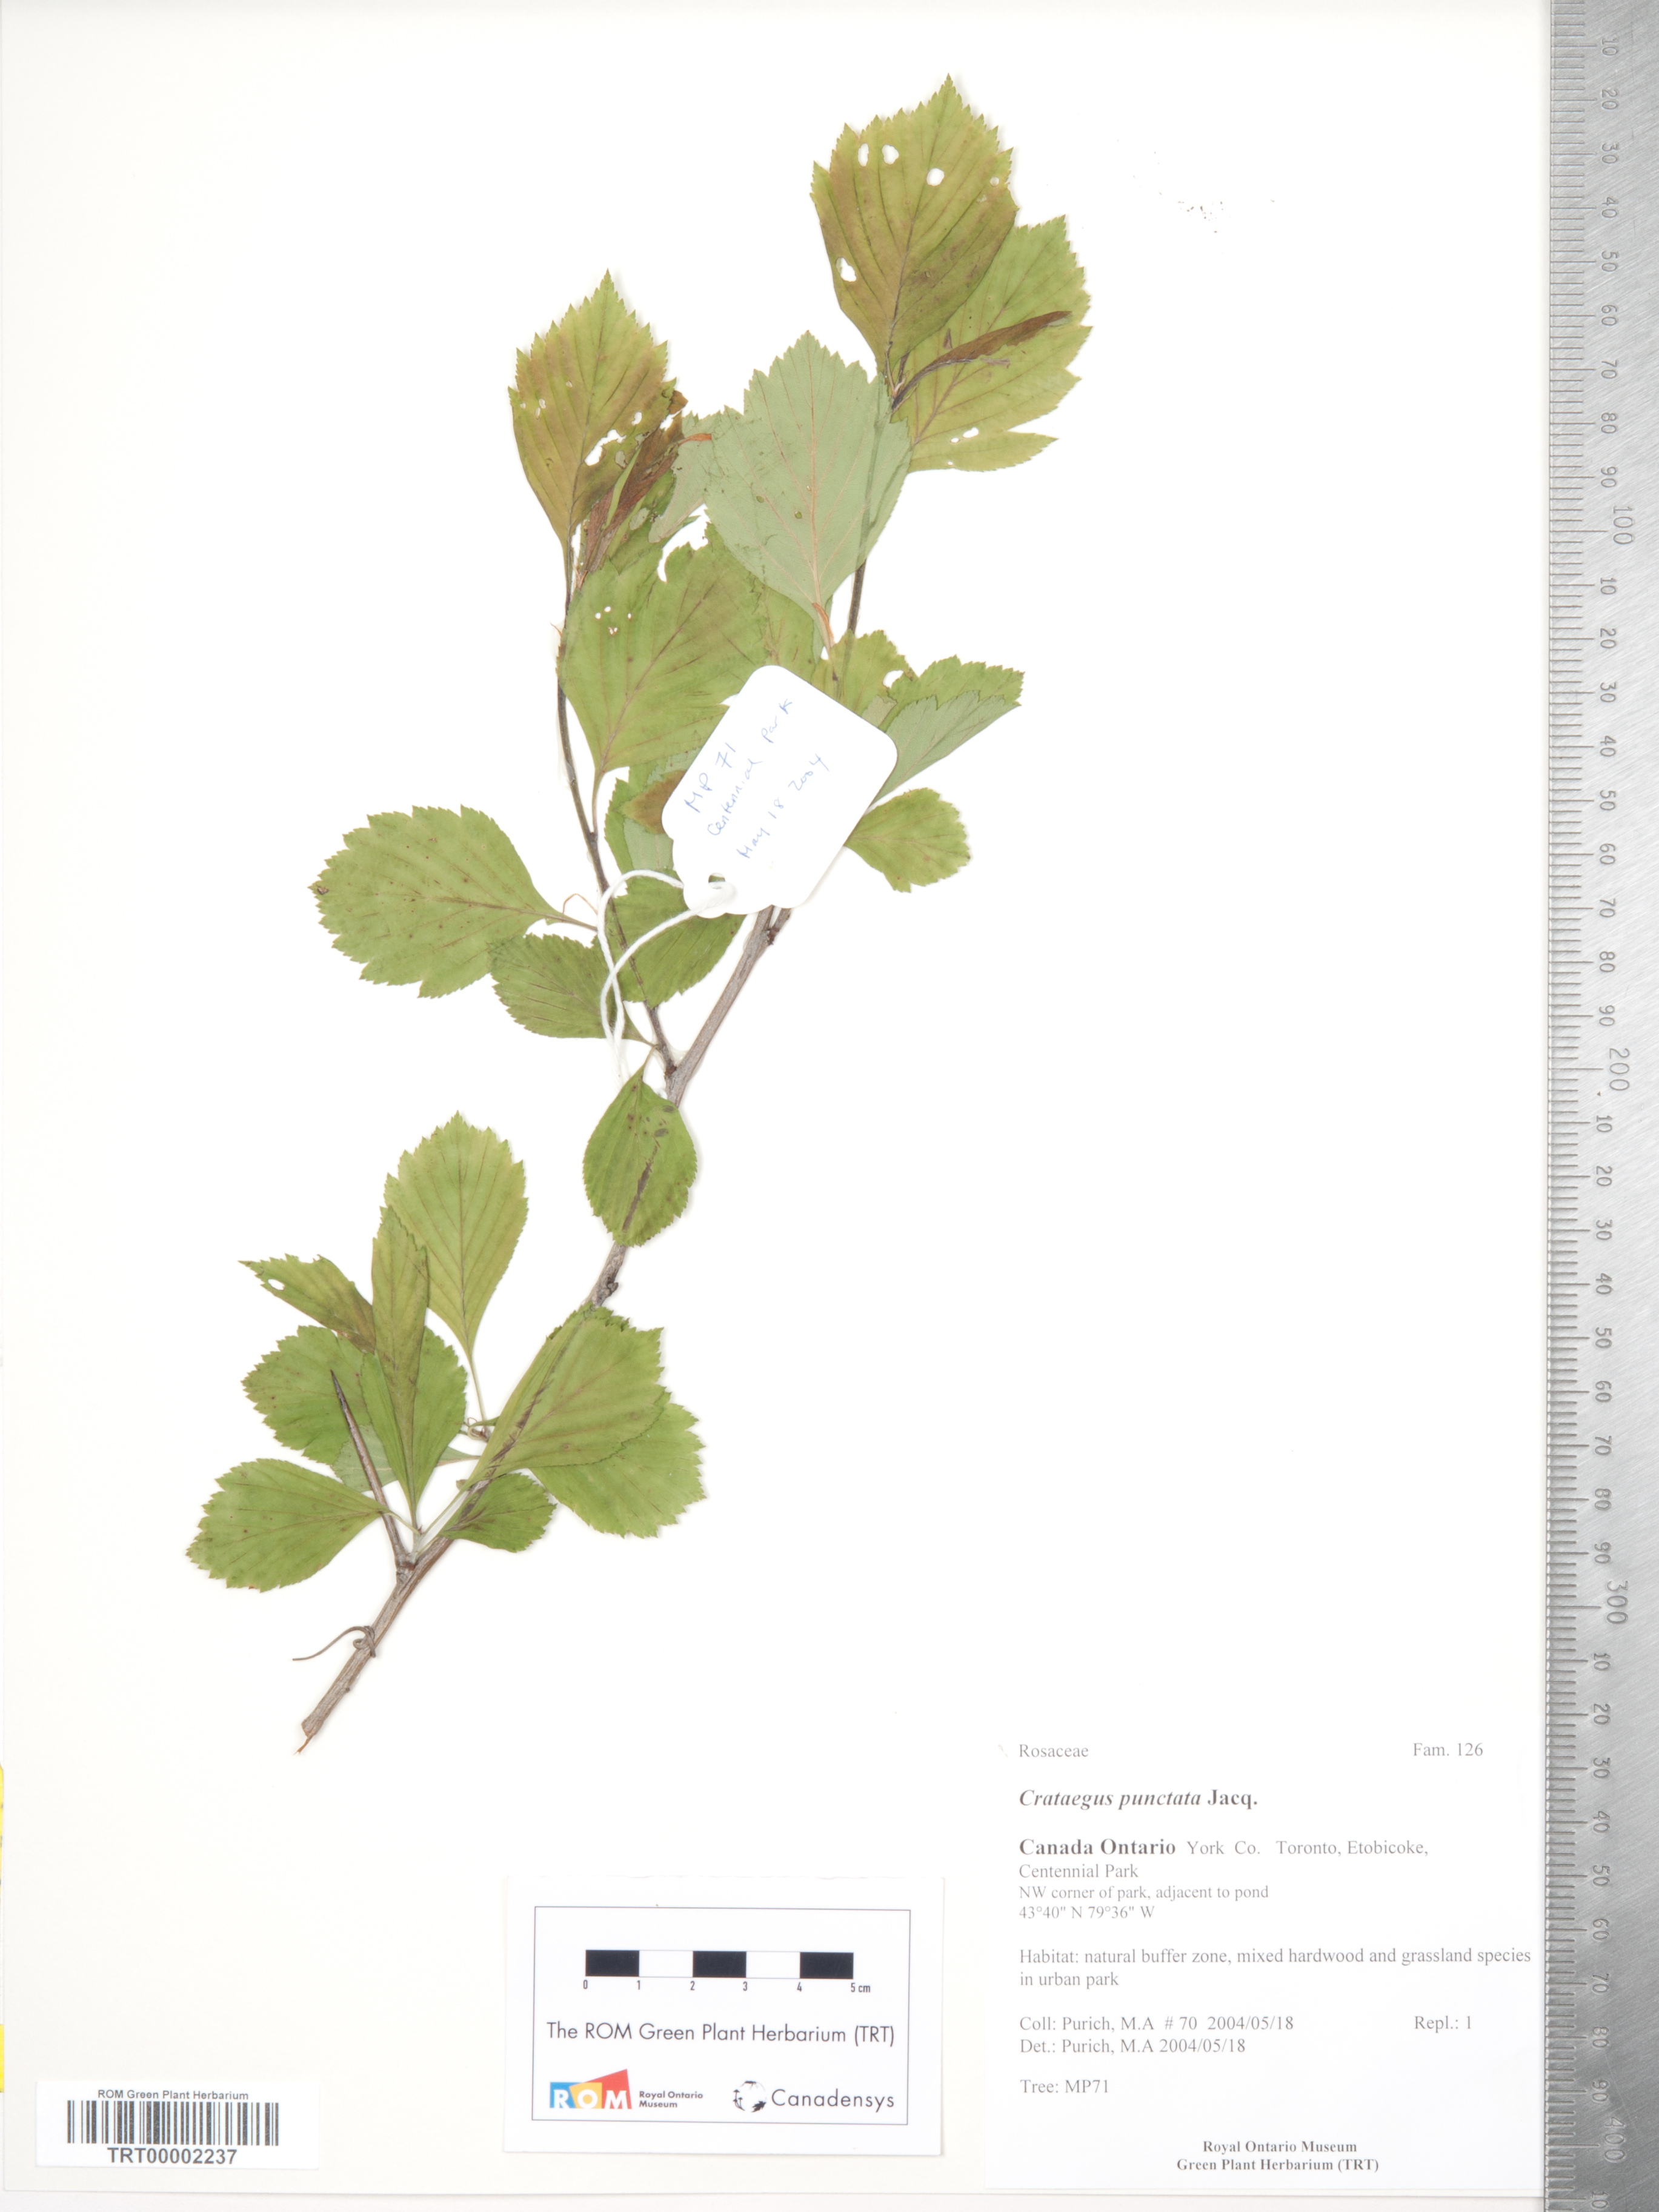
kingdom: Plantae
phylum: Tracheophyta
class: Magnoliopsida
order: Rosales
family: Rosaceae
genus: Crataegus
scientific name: Crataegus punctata
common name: Dotted hawthorn
